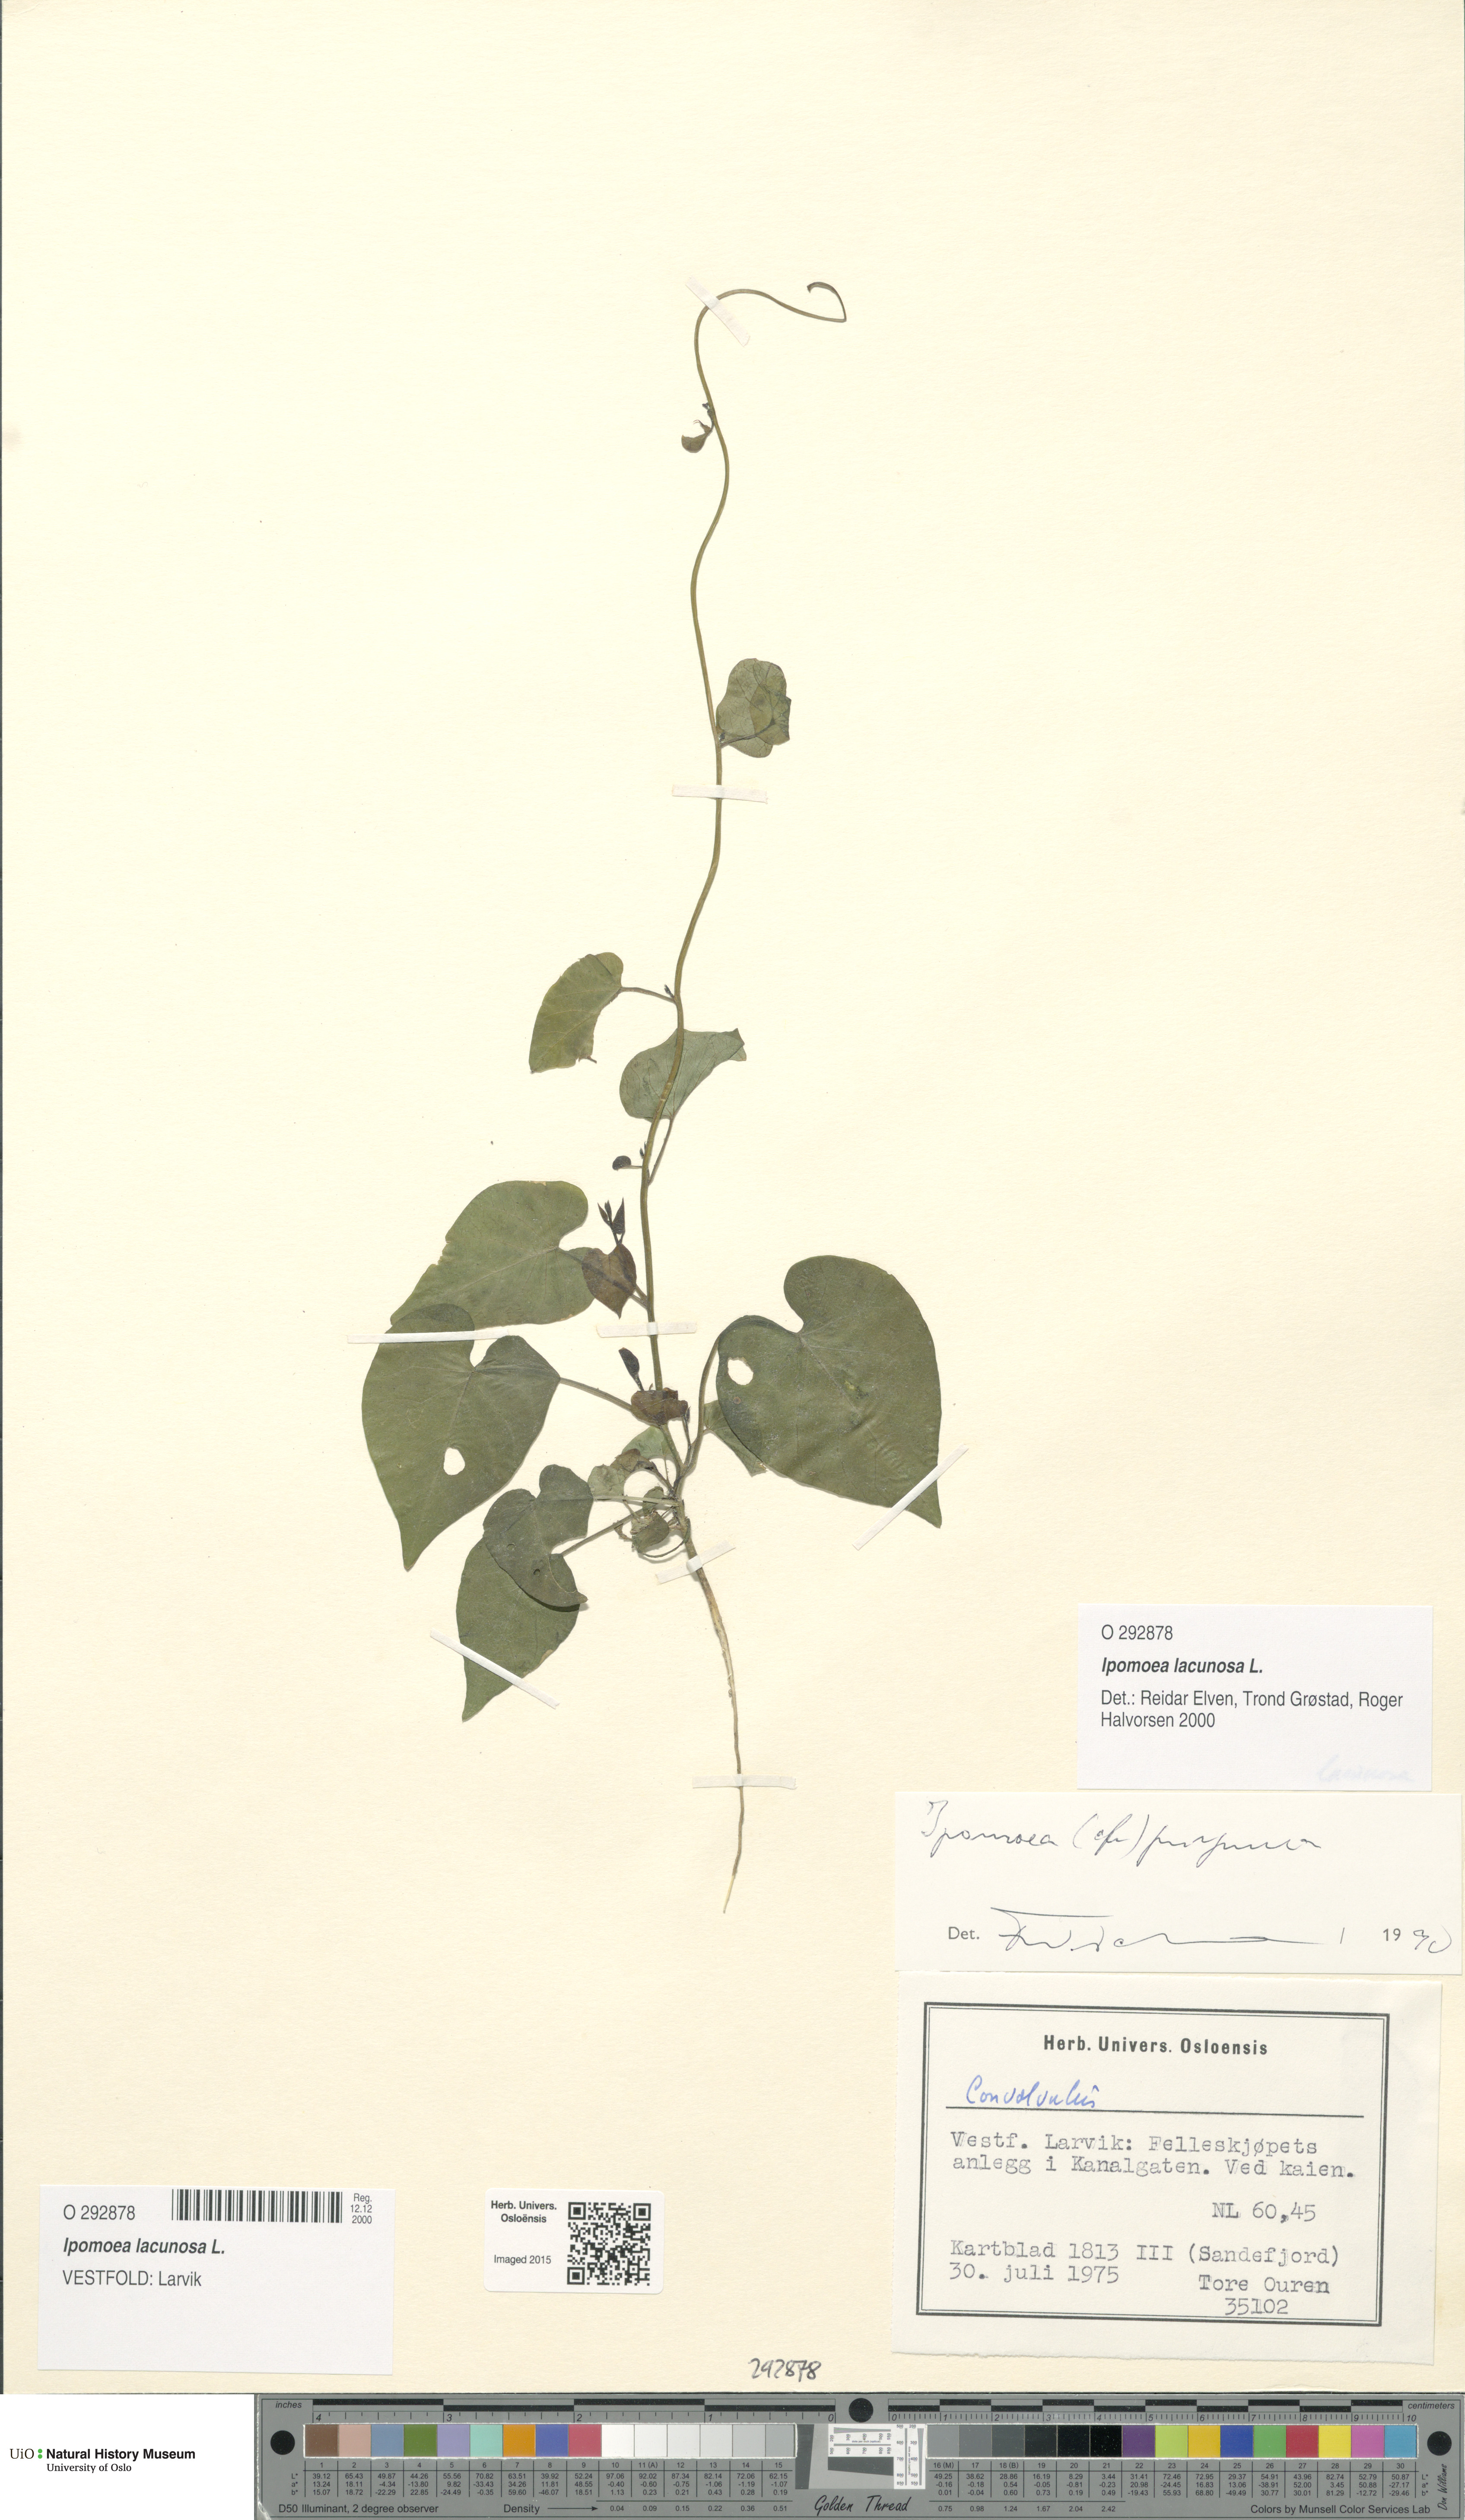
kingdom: Plantae
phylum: Tracheophyta
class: Magnoliopsida
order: Solanales
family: Convolvulaceae
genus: Ipomoea
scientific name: Ipomoea lacunosa
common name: White morning-glory
